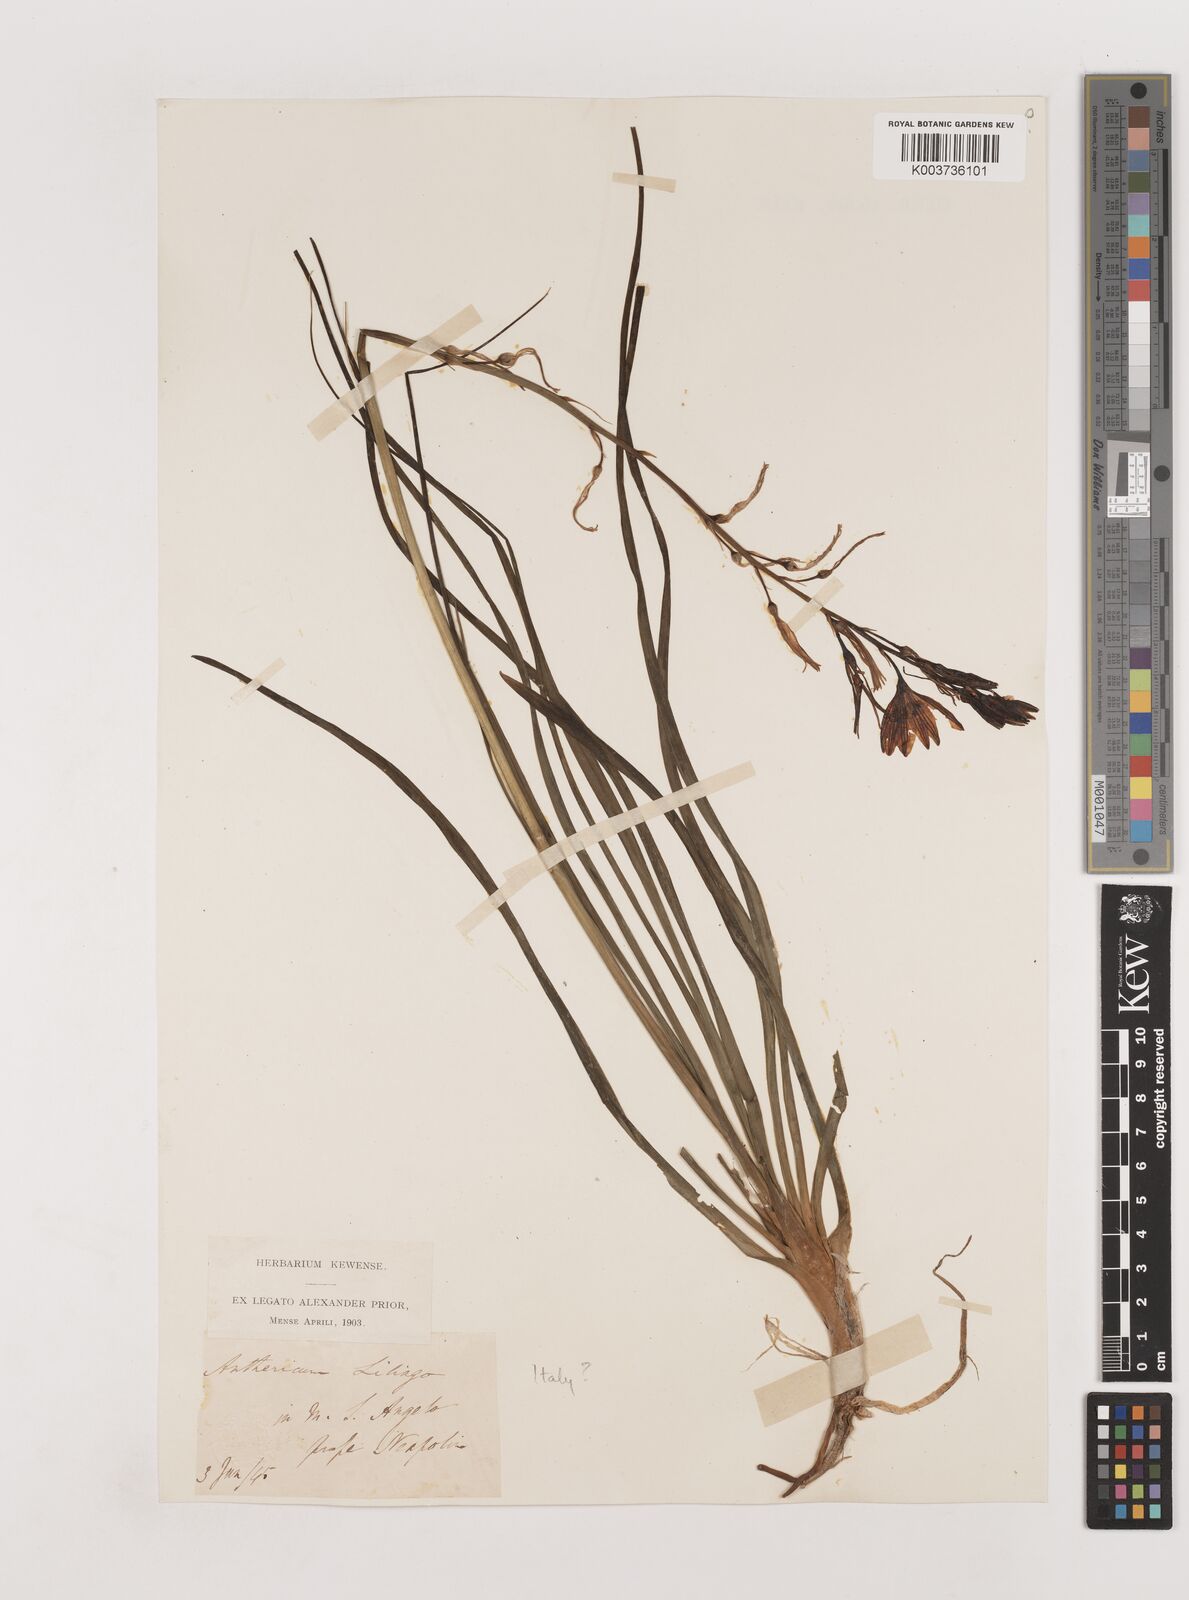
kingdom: Plantae
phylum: Tracheophyta
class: Liliopsida
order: Asparagales
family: Asparagaceae
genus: Anthericum
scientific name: Anthericum liliago
